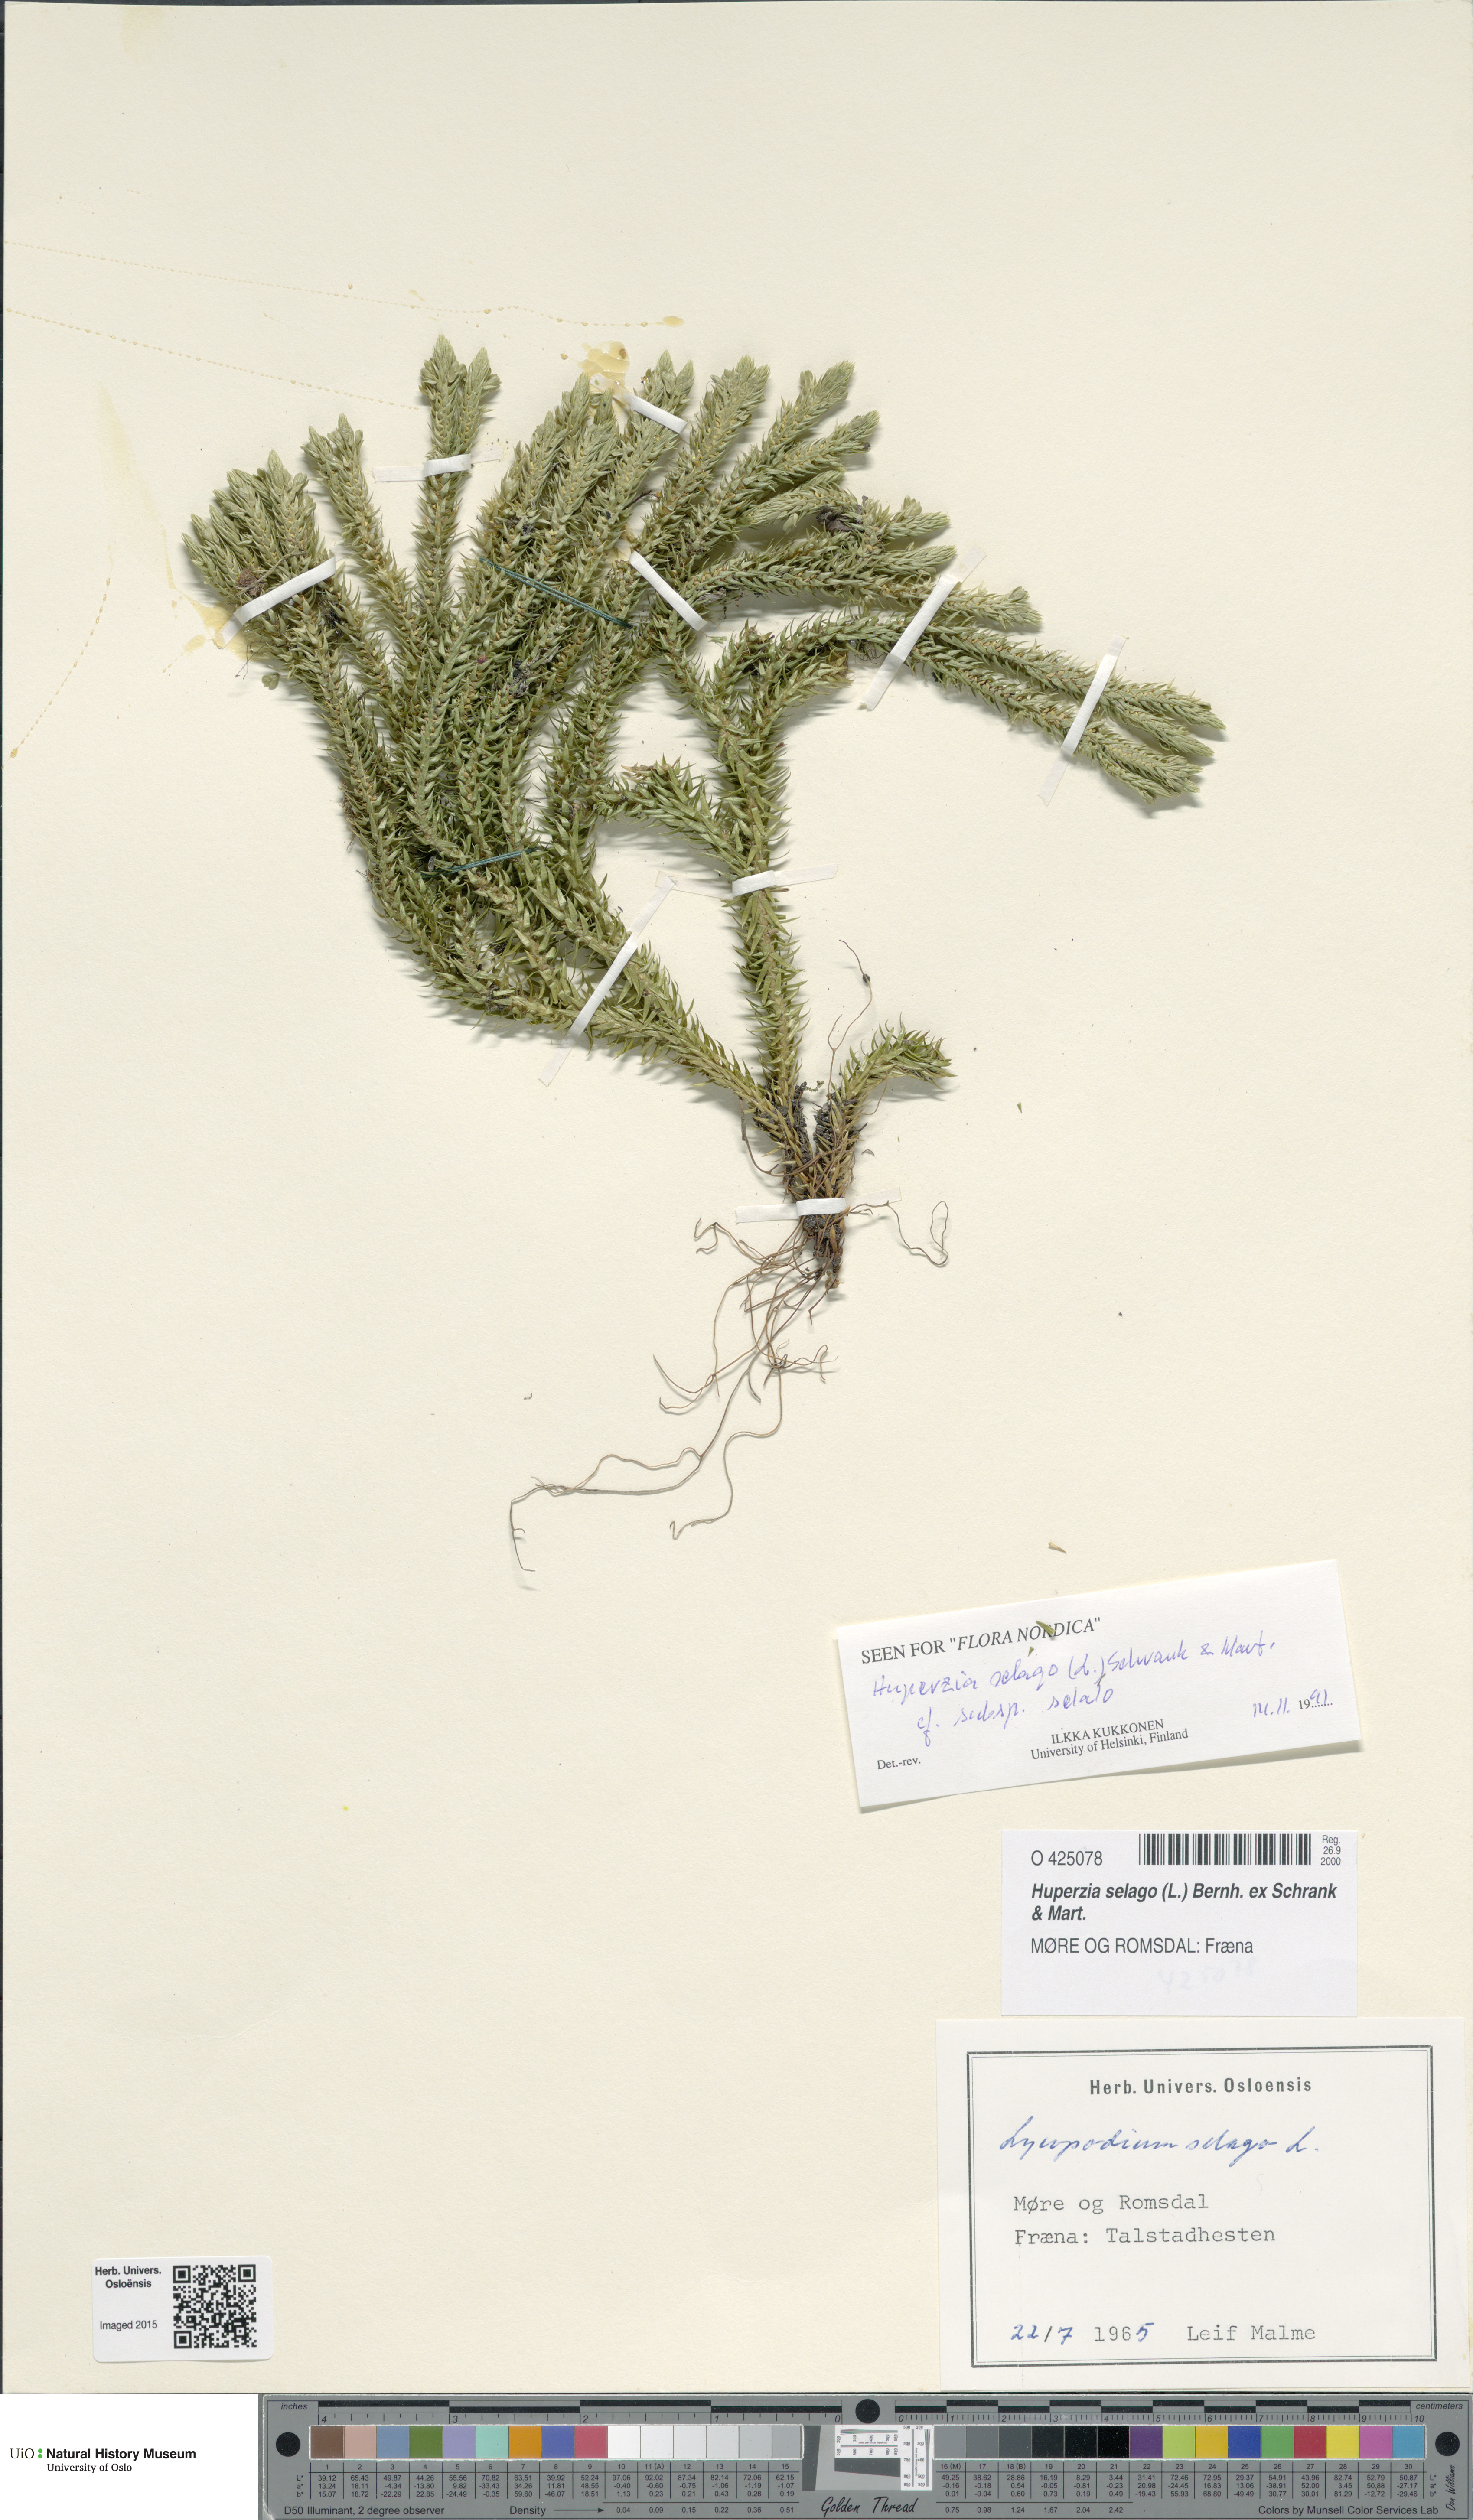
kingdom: Plantae
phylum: Tracheophyta
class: Lycopodiopsida
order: Lycopodiales
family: Lycopodiaceae
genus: Huperzia
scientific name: Huperzia selago
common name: Northern firmoss
